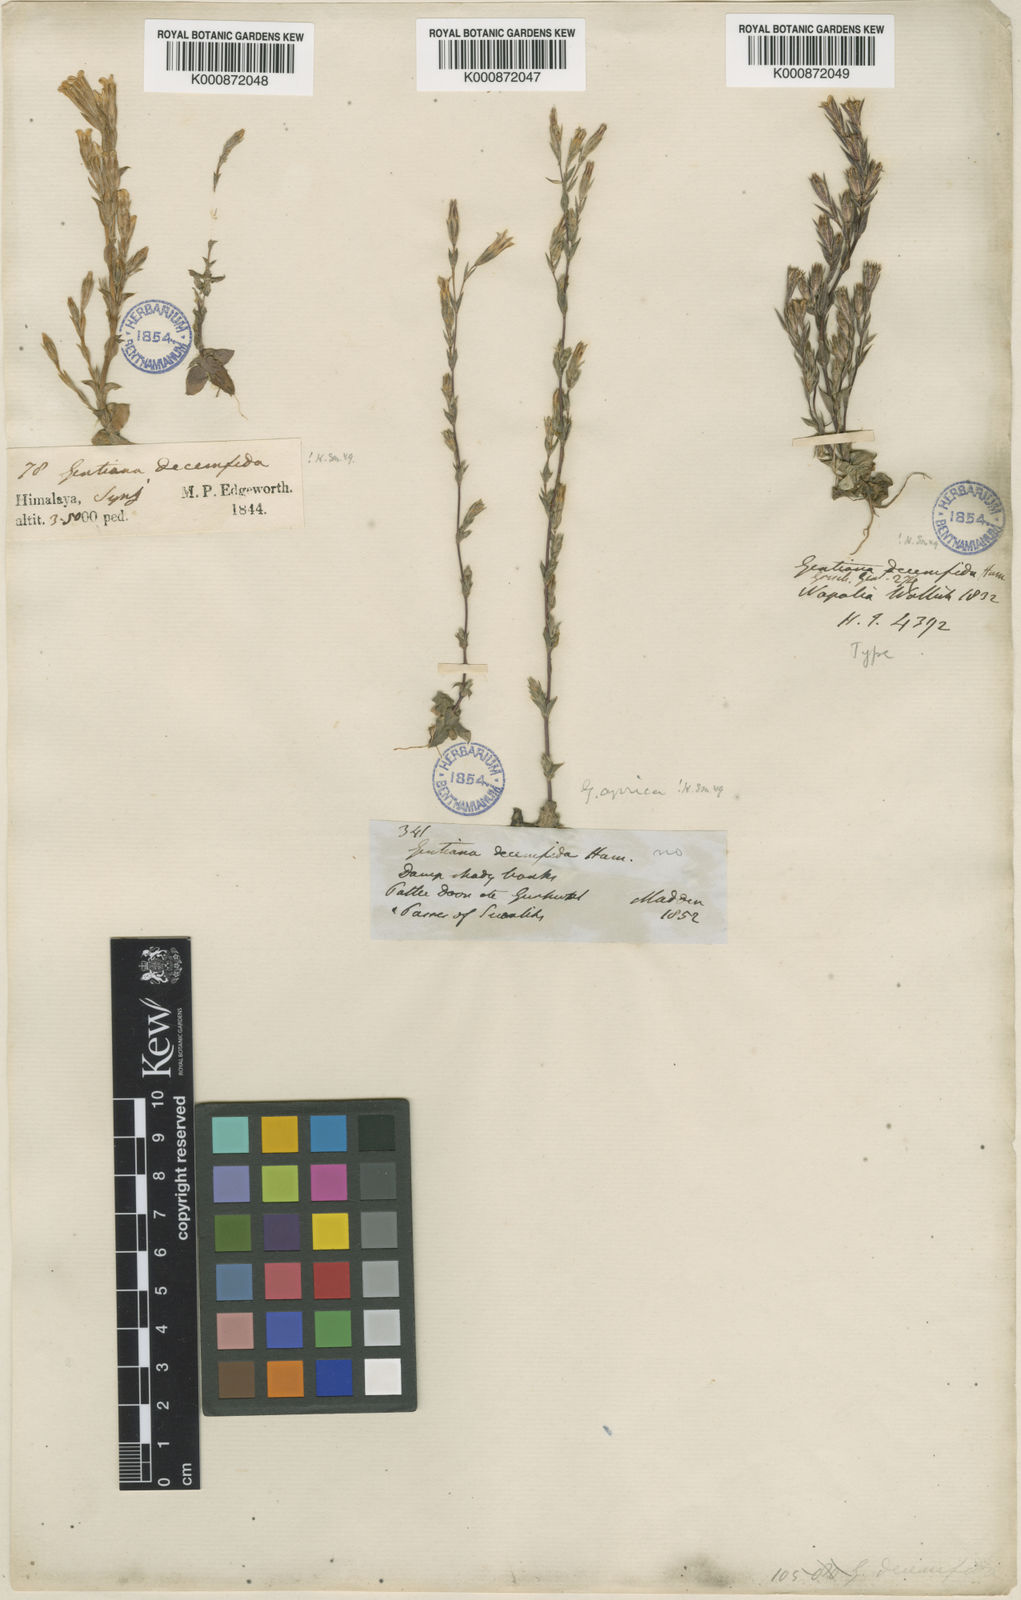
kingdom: Plantae
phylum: Tracheophyta
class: Magnoliopsida
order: Gentianales
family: Gentianaceae
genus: Gentiana
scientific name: Gentiana decemfida
